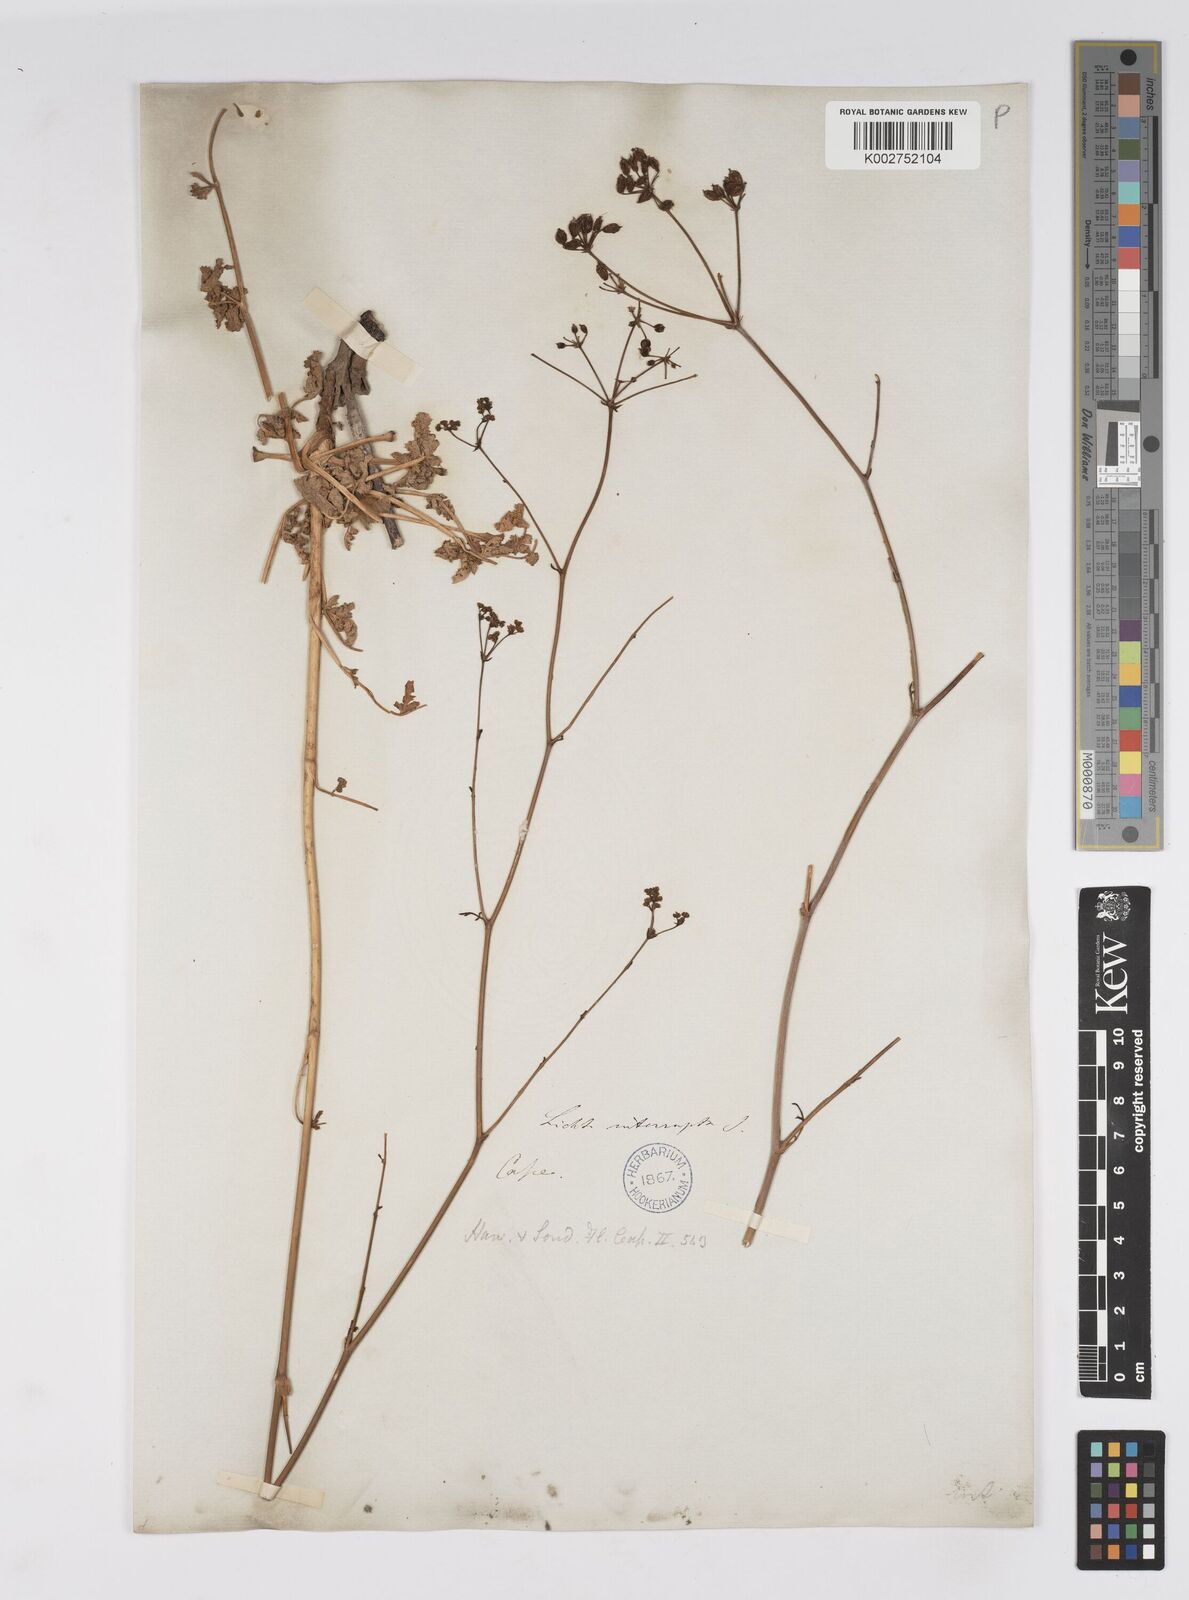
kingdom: Plantae
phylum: Tracheophyta
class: Magnoliopsida
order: Apiales
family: Apiaceae
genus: Lichtensteinia
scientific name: Lichtensteinia interrupta
